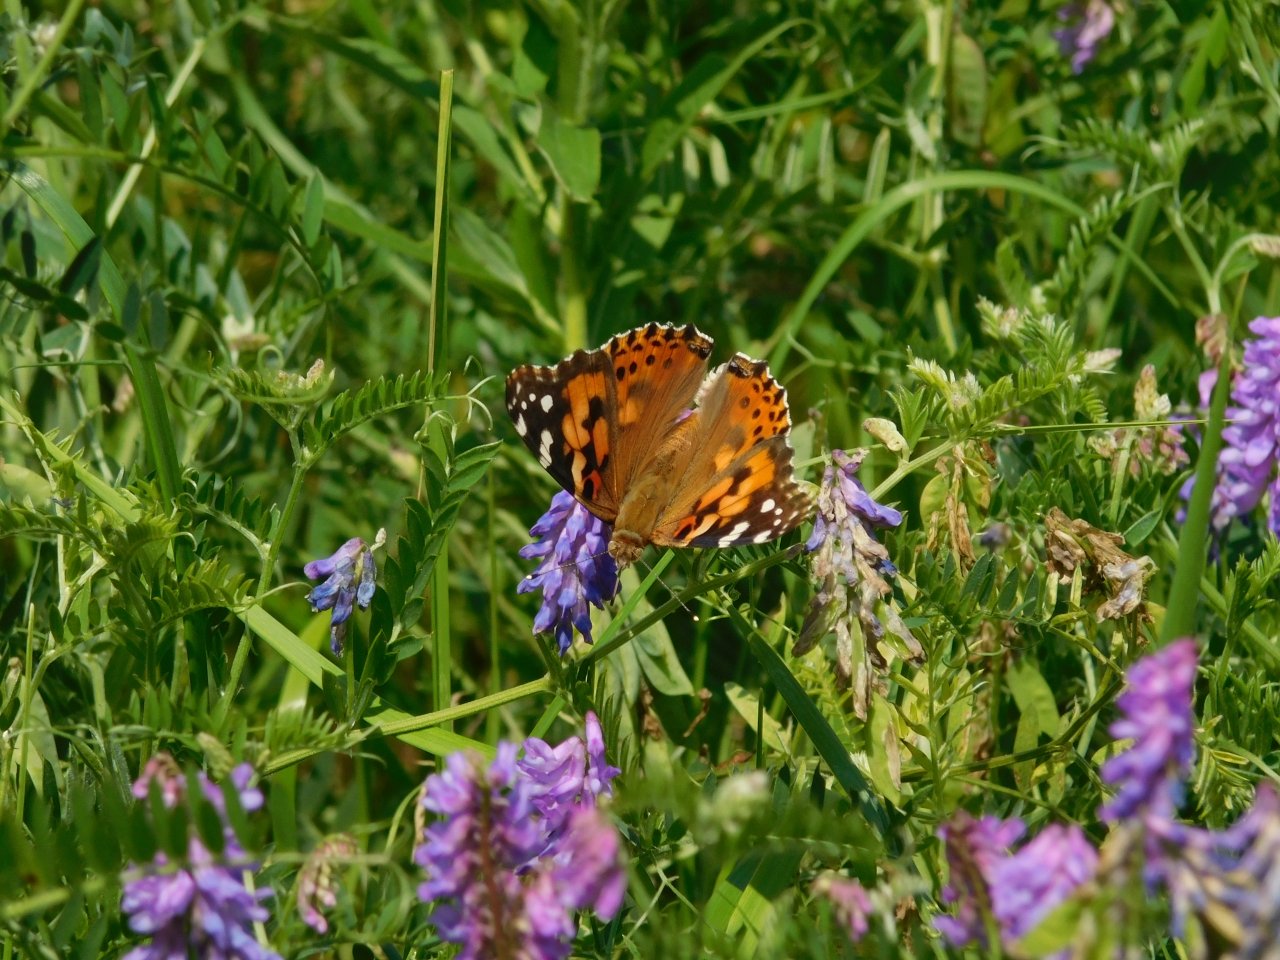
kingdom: Animalia
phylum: Arthropoda
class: Insecta
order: Lepidoptera
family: Nymphalidae
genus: Vanessa
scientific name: Vanessa cardui
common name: Painted Lady
